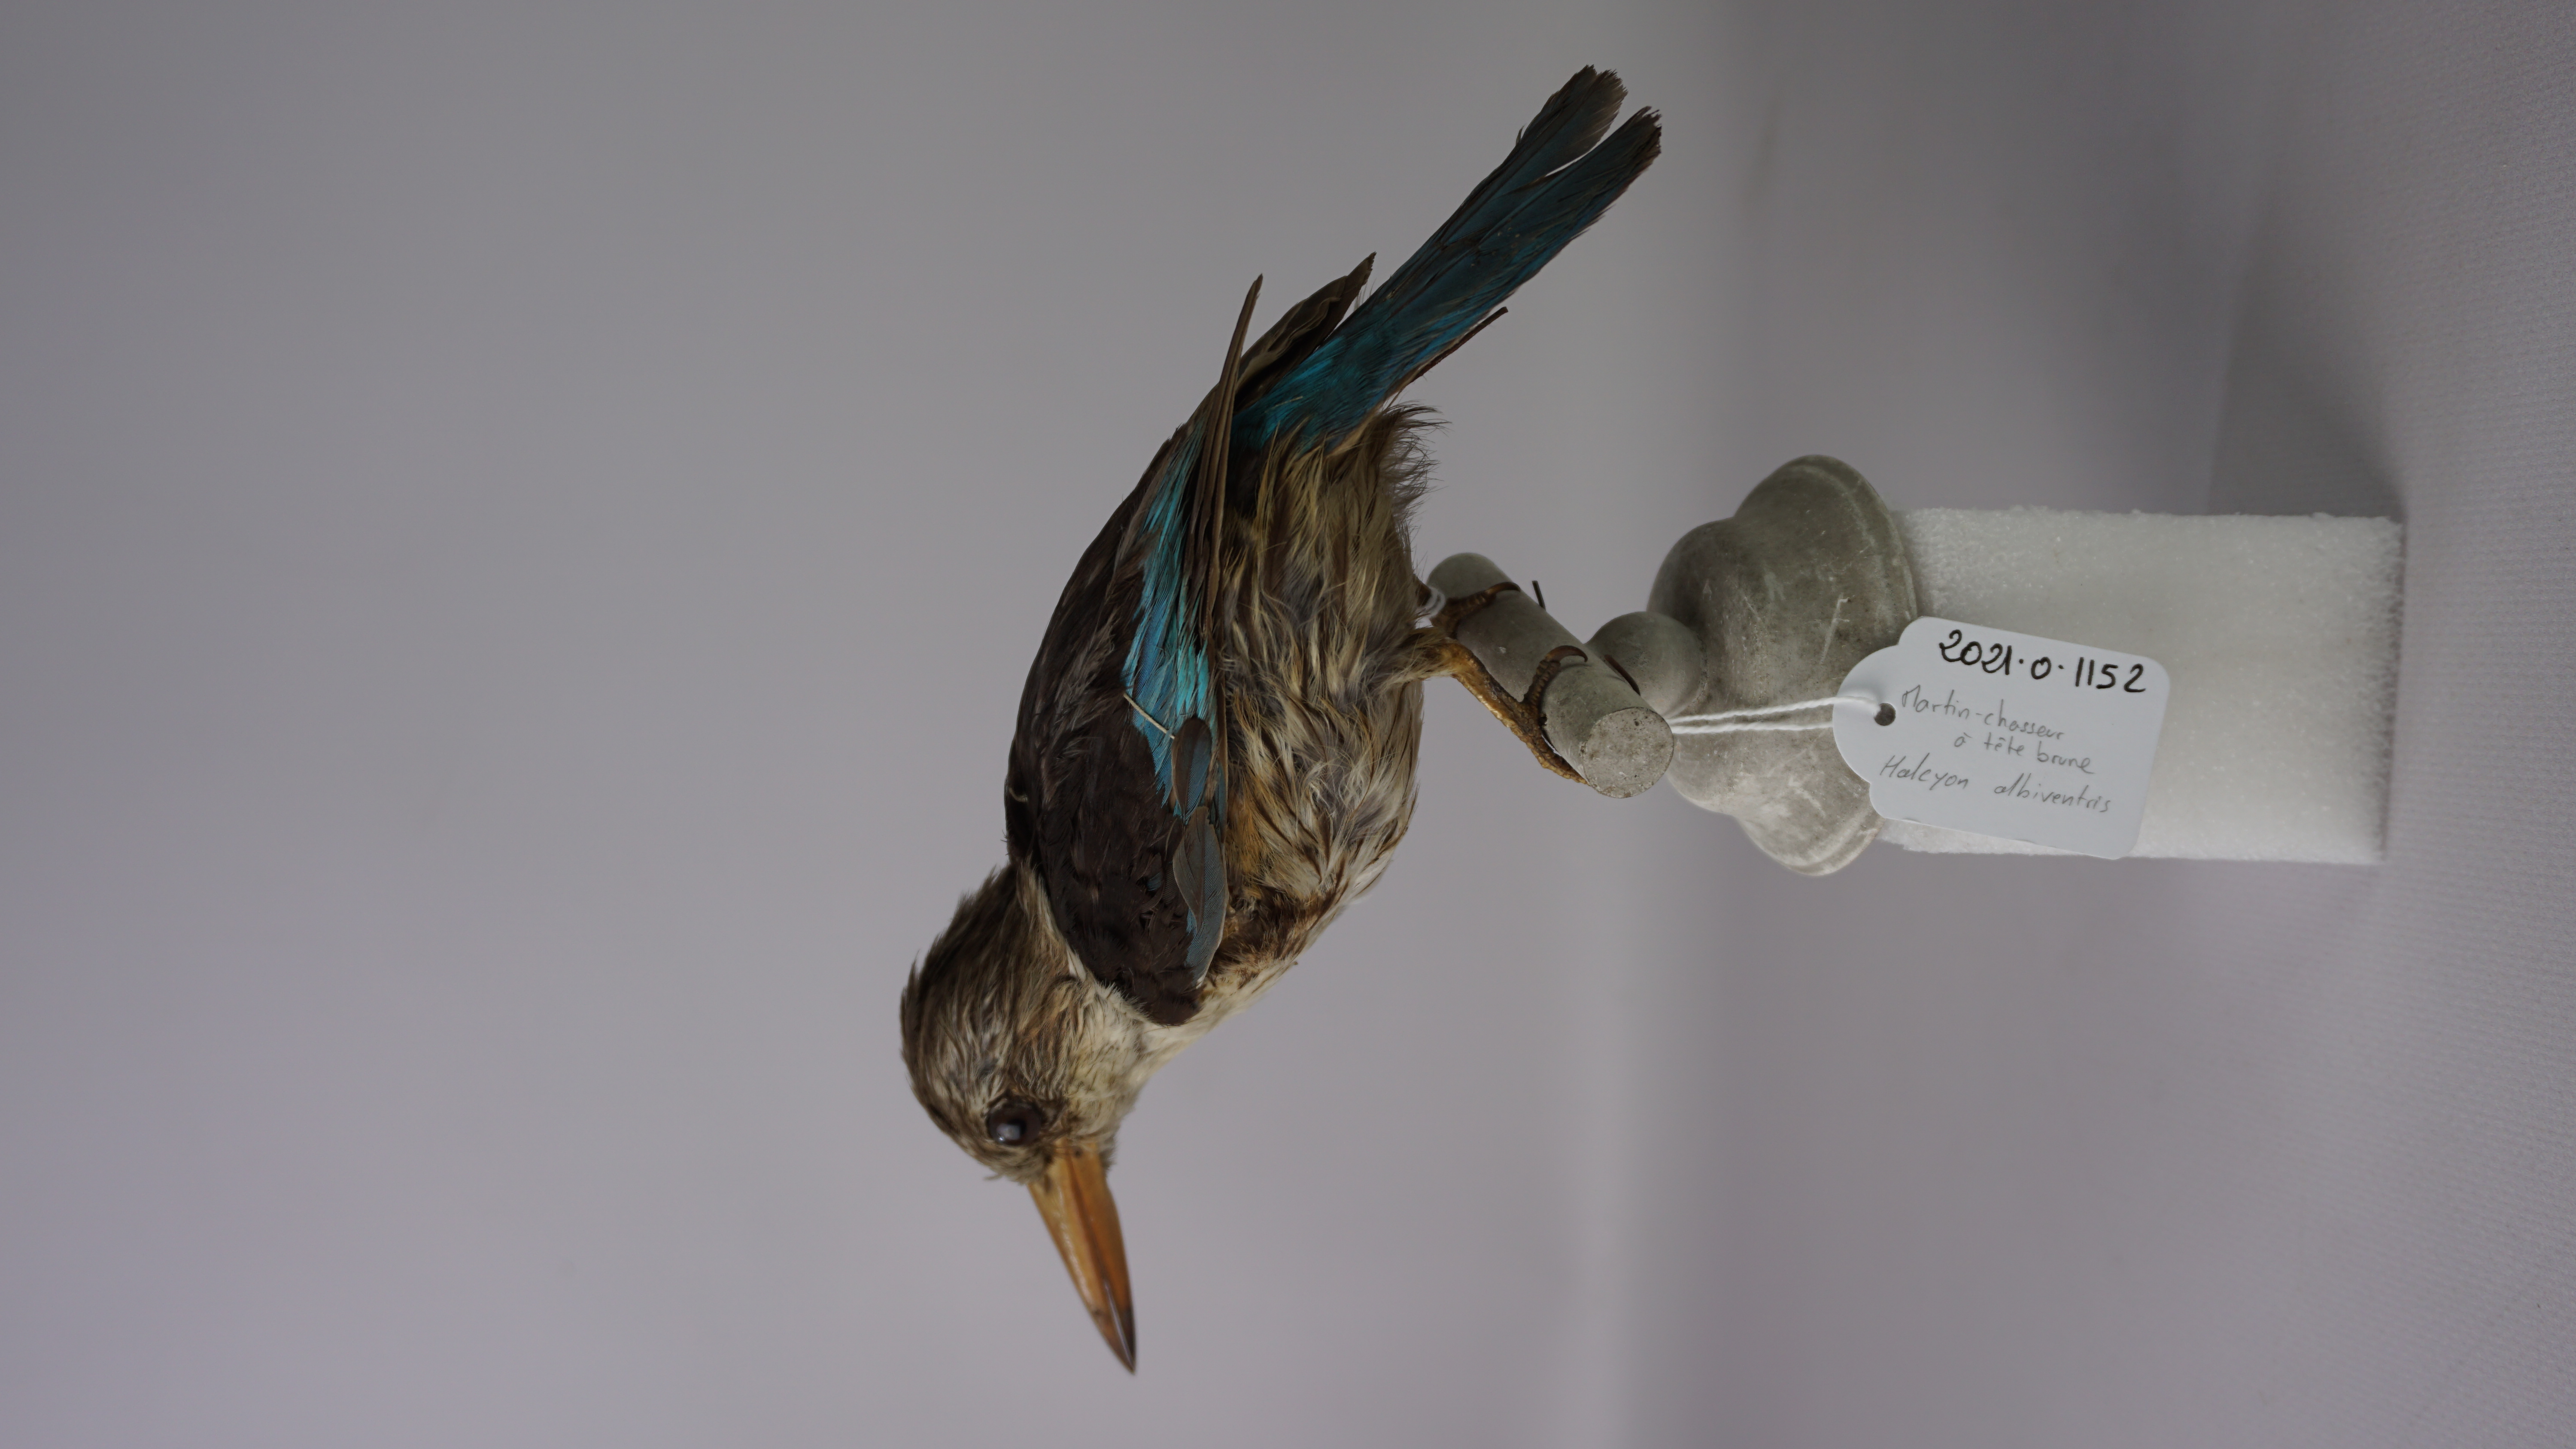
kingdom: Animalia
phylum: Chordata
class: Aves
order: Coraciiformes
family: Alcedinidae
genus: Halcyon
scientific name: Halcyon albiventris
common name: Brown-hooded kingfisher
